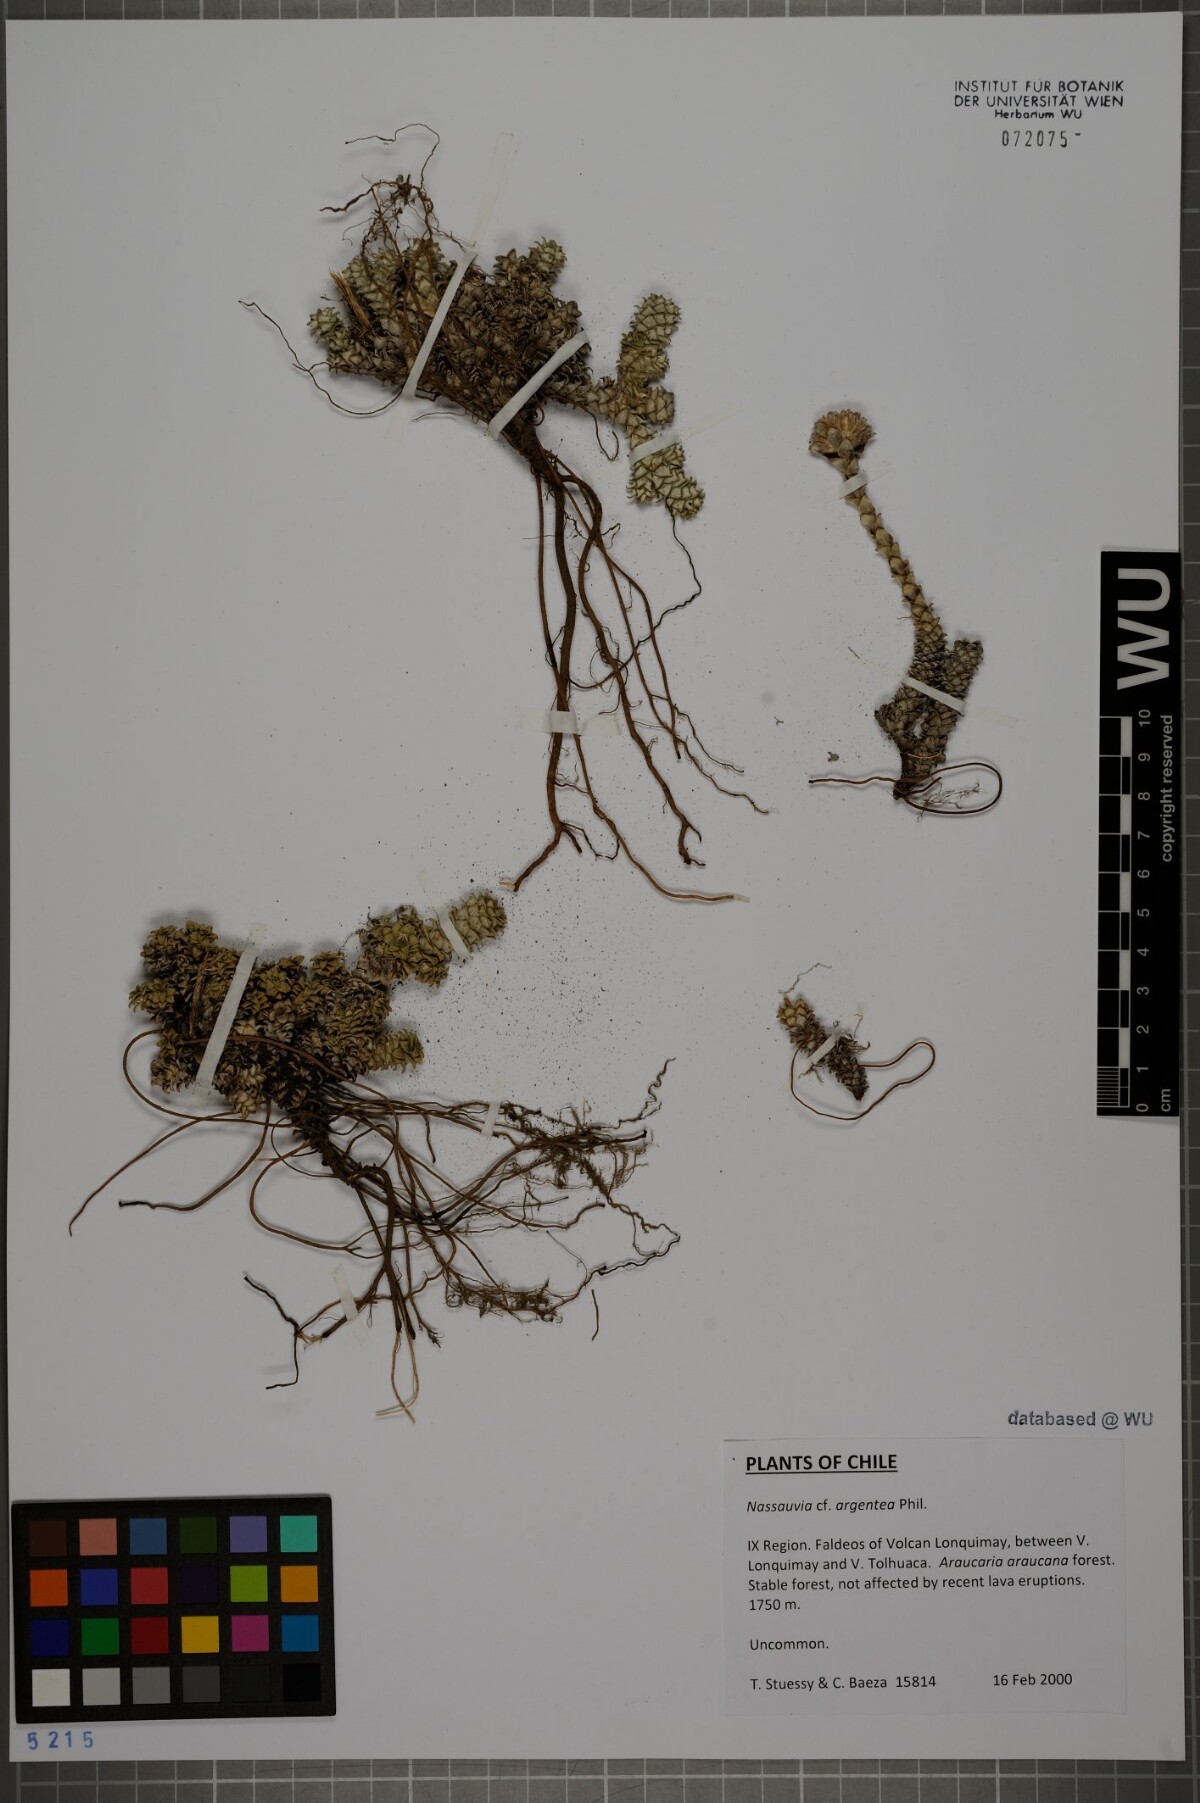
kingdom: Plantae
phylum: Tracheophyta
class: Magnoliopsida
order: Lamiales
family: Orobanchaceae
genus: Phelipanche
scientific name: Phelipanche pseudorosmarina
